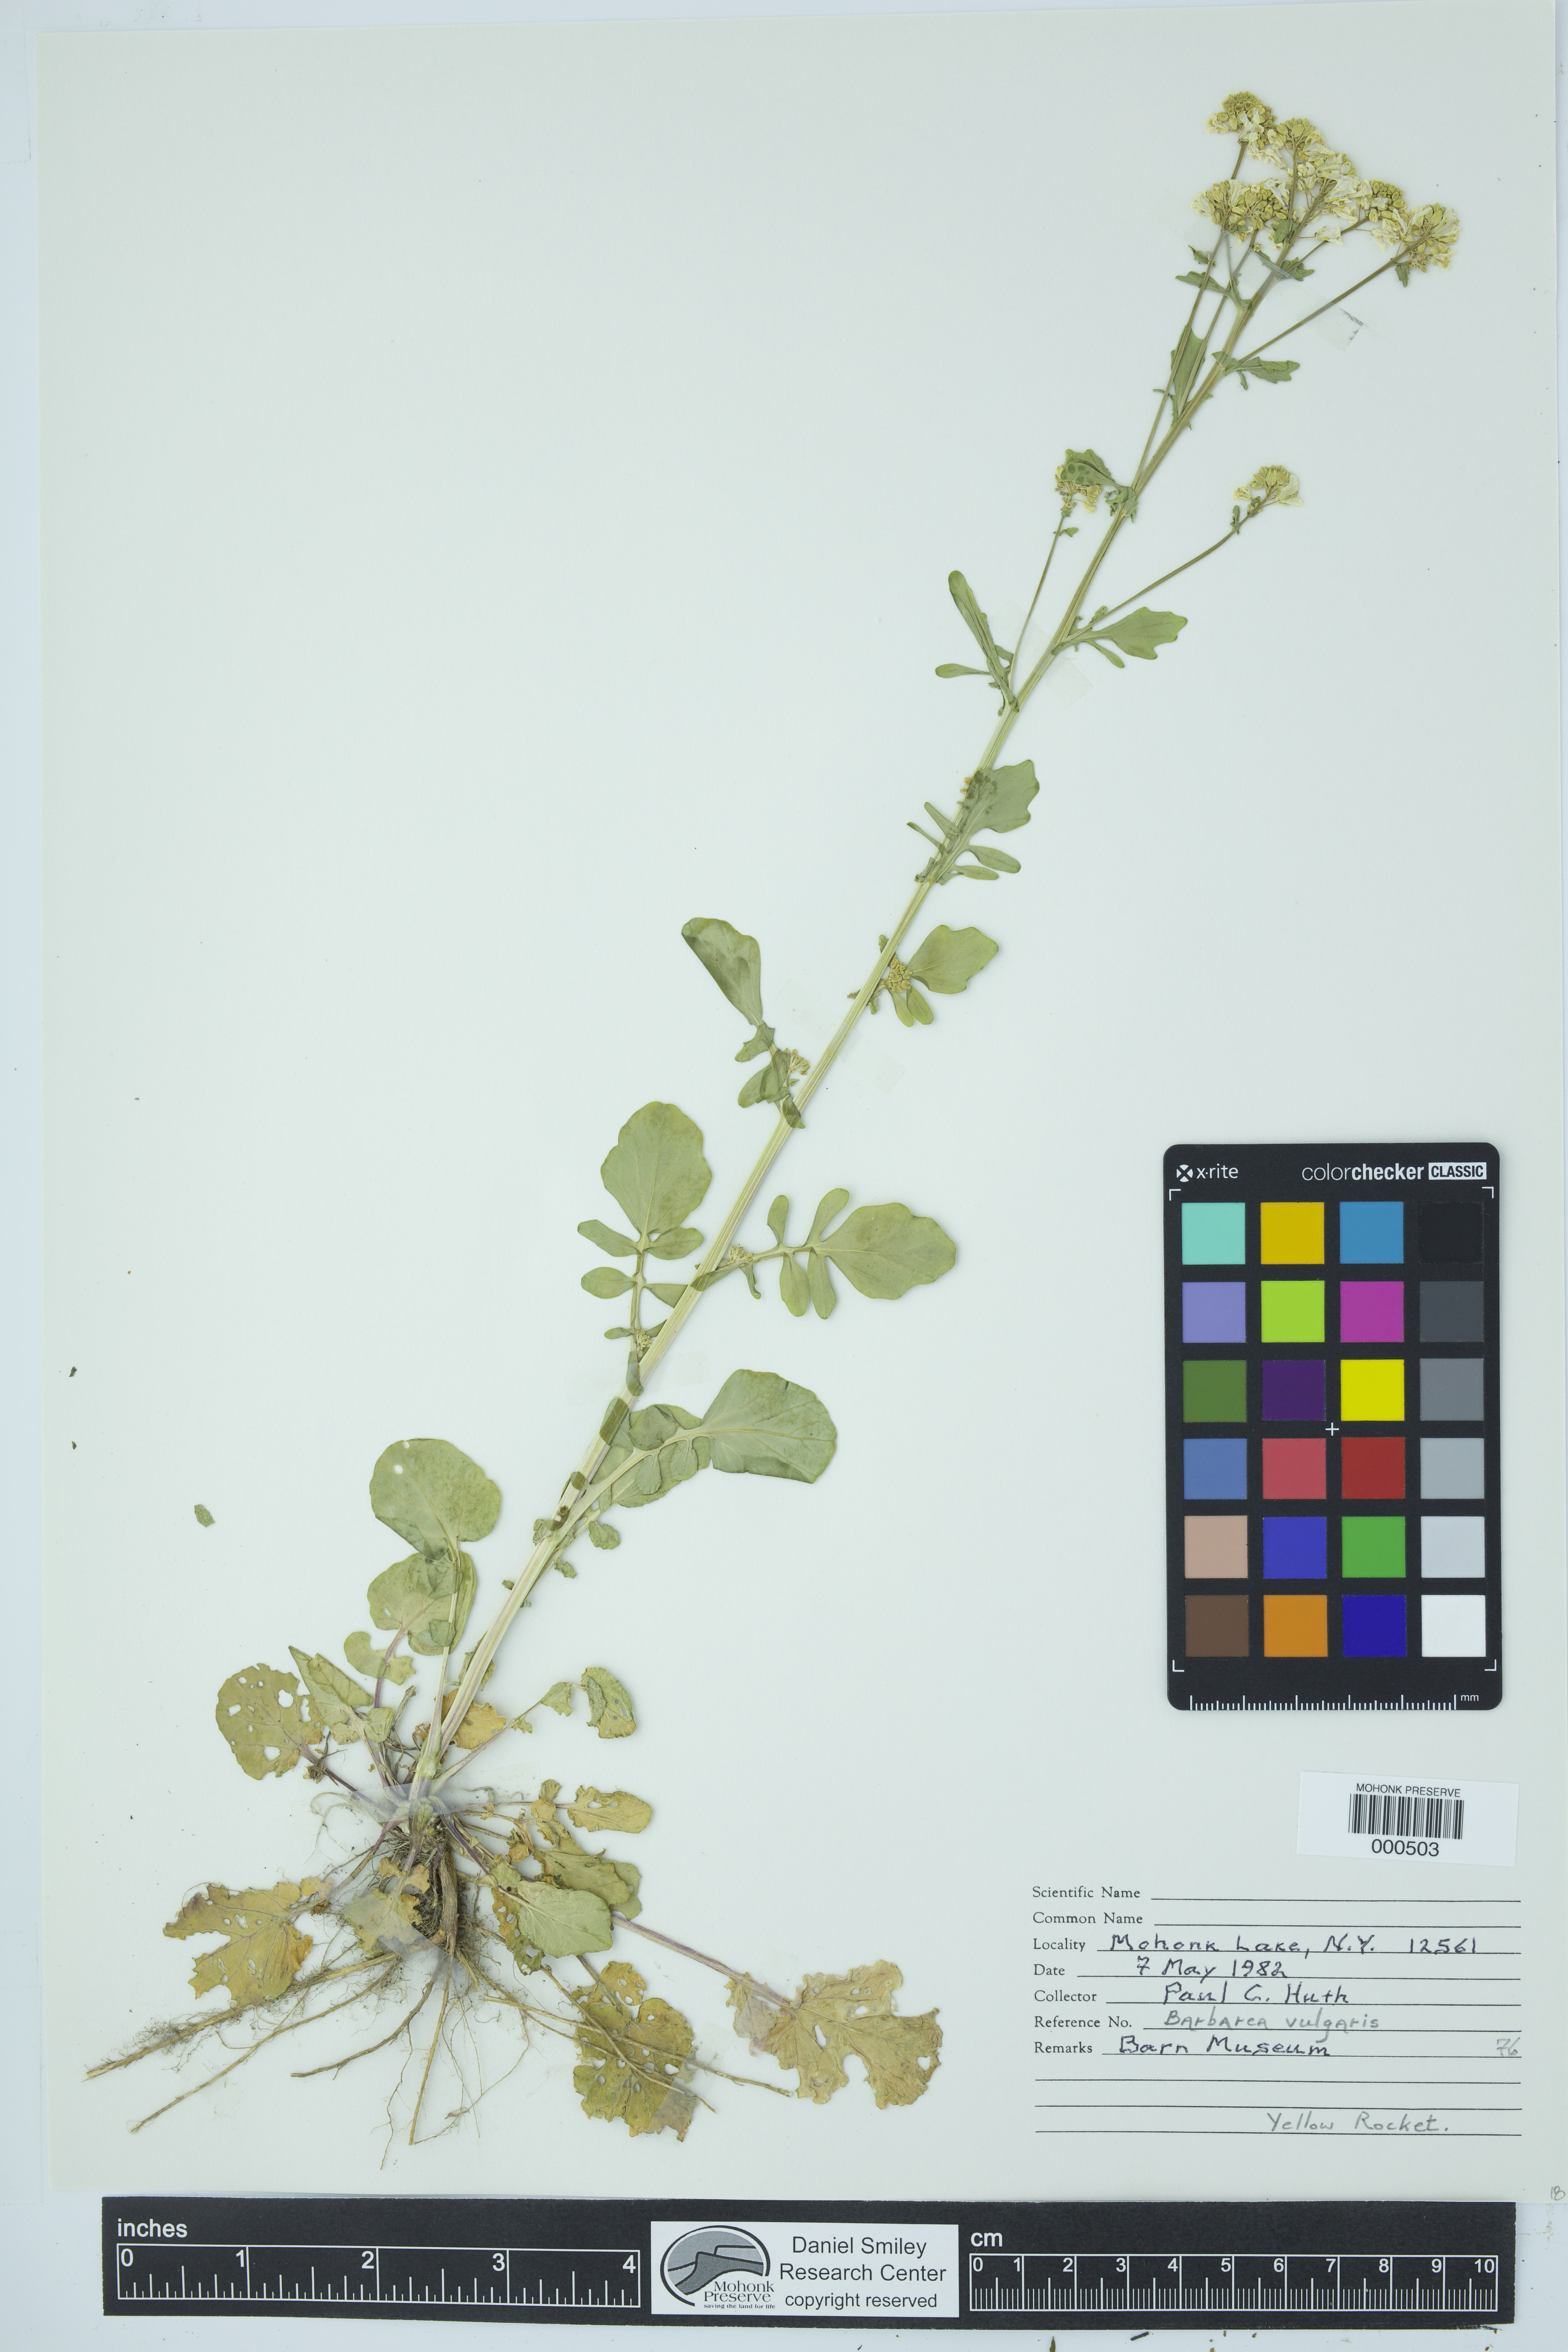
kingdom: Plantae
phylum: Tracheophyta
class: Magnoliopsida
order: Brassicales
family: Brassicaceae
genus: Barbarea
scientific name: Barbarea vulgaris
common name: Cressy-greens
